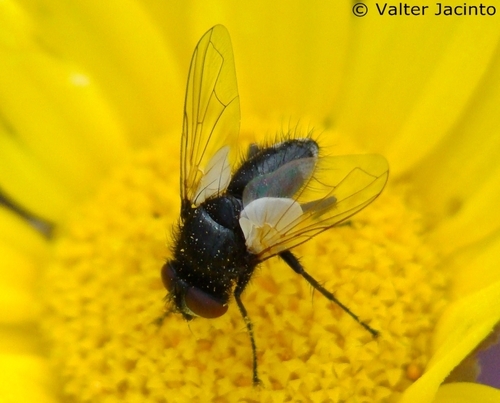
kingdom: Animalia
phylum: Arthropoda
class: Insecta
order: Diptera
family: Tachinidae
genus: Leucostoma
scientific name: Leucostoma
